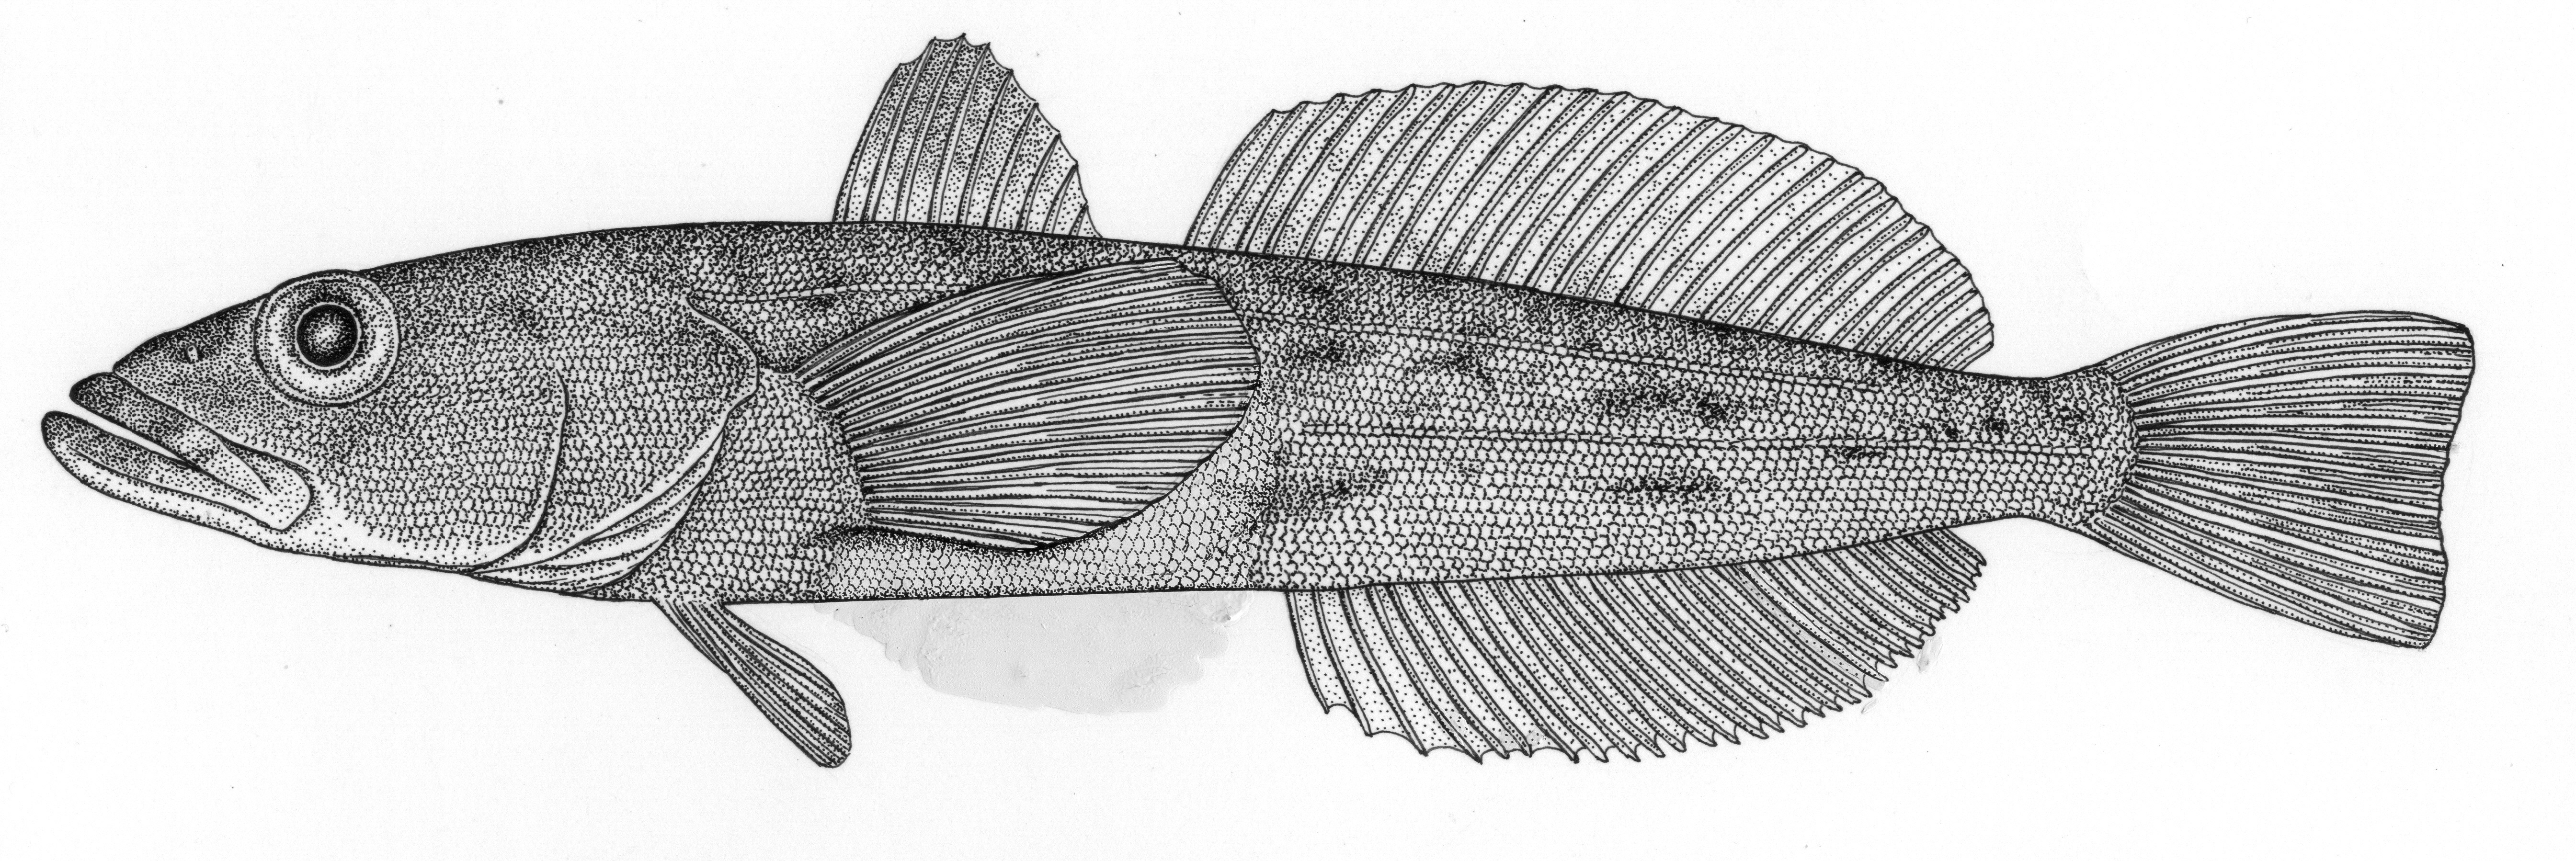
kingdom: Animalia
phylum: Chordata
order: Perciformes
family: Nototheniidae
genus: Dissostichus
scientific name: Dissostichus eleginoides
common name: Patagonian toothfish
